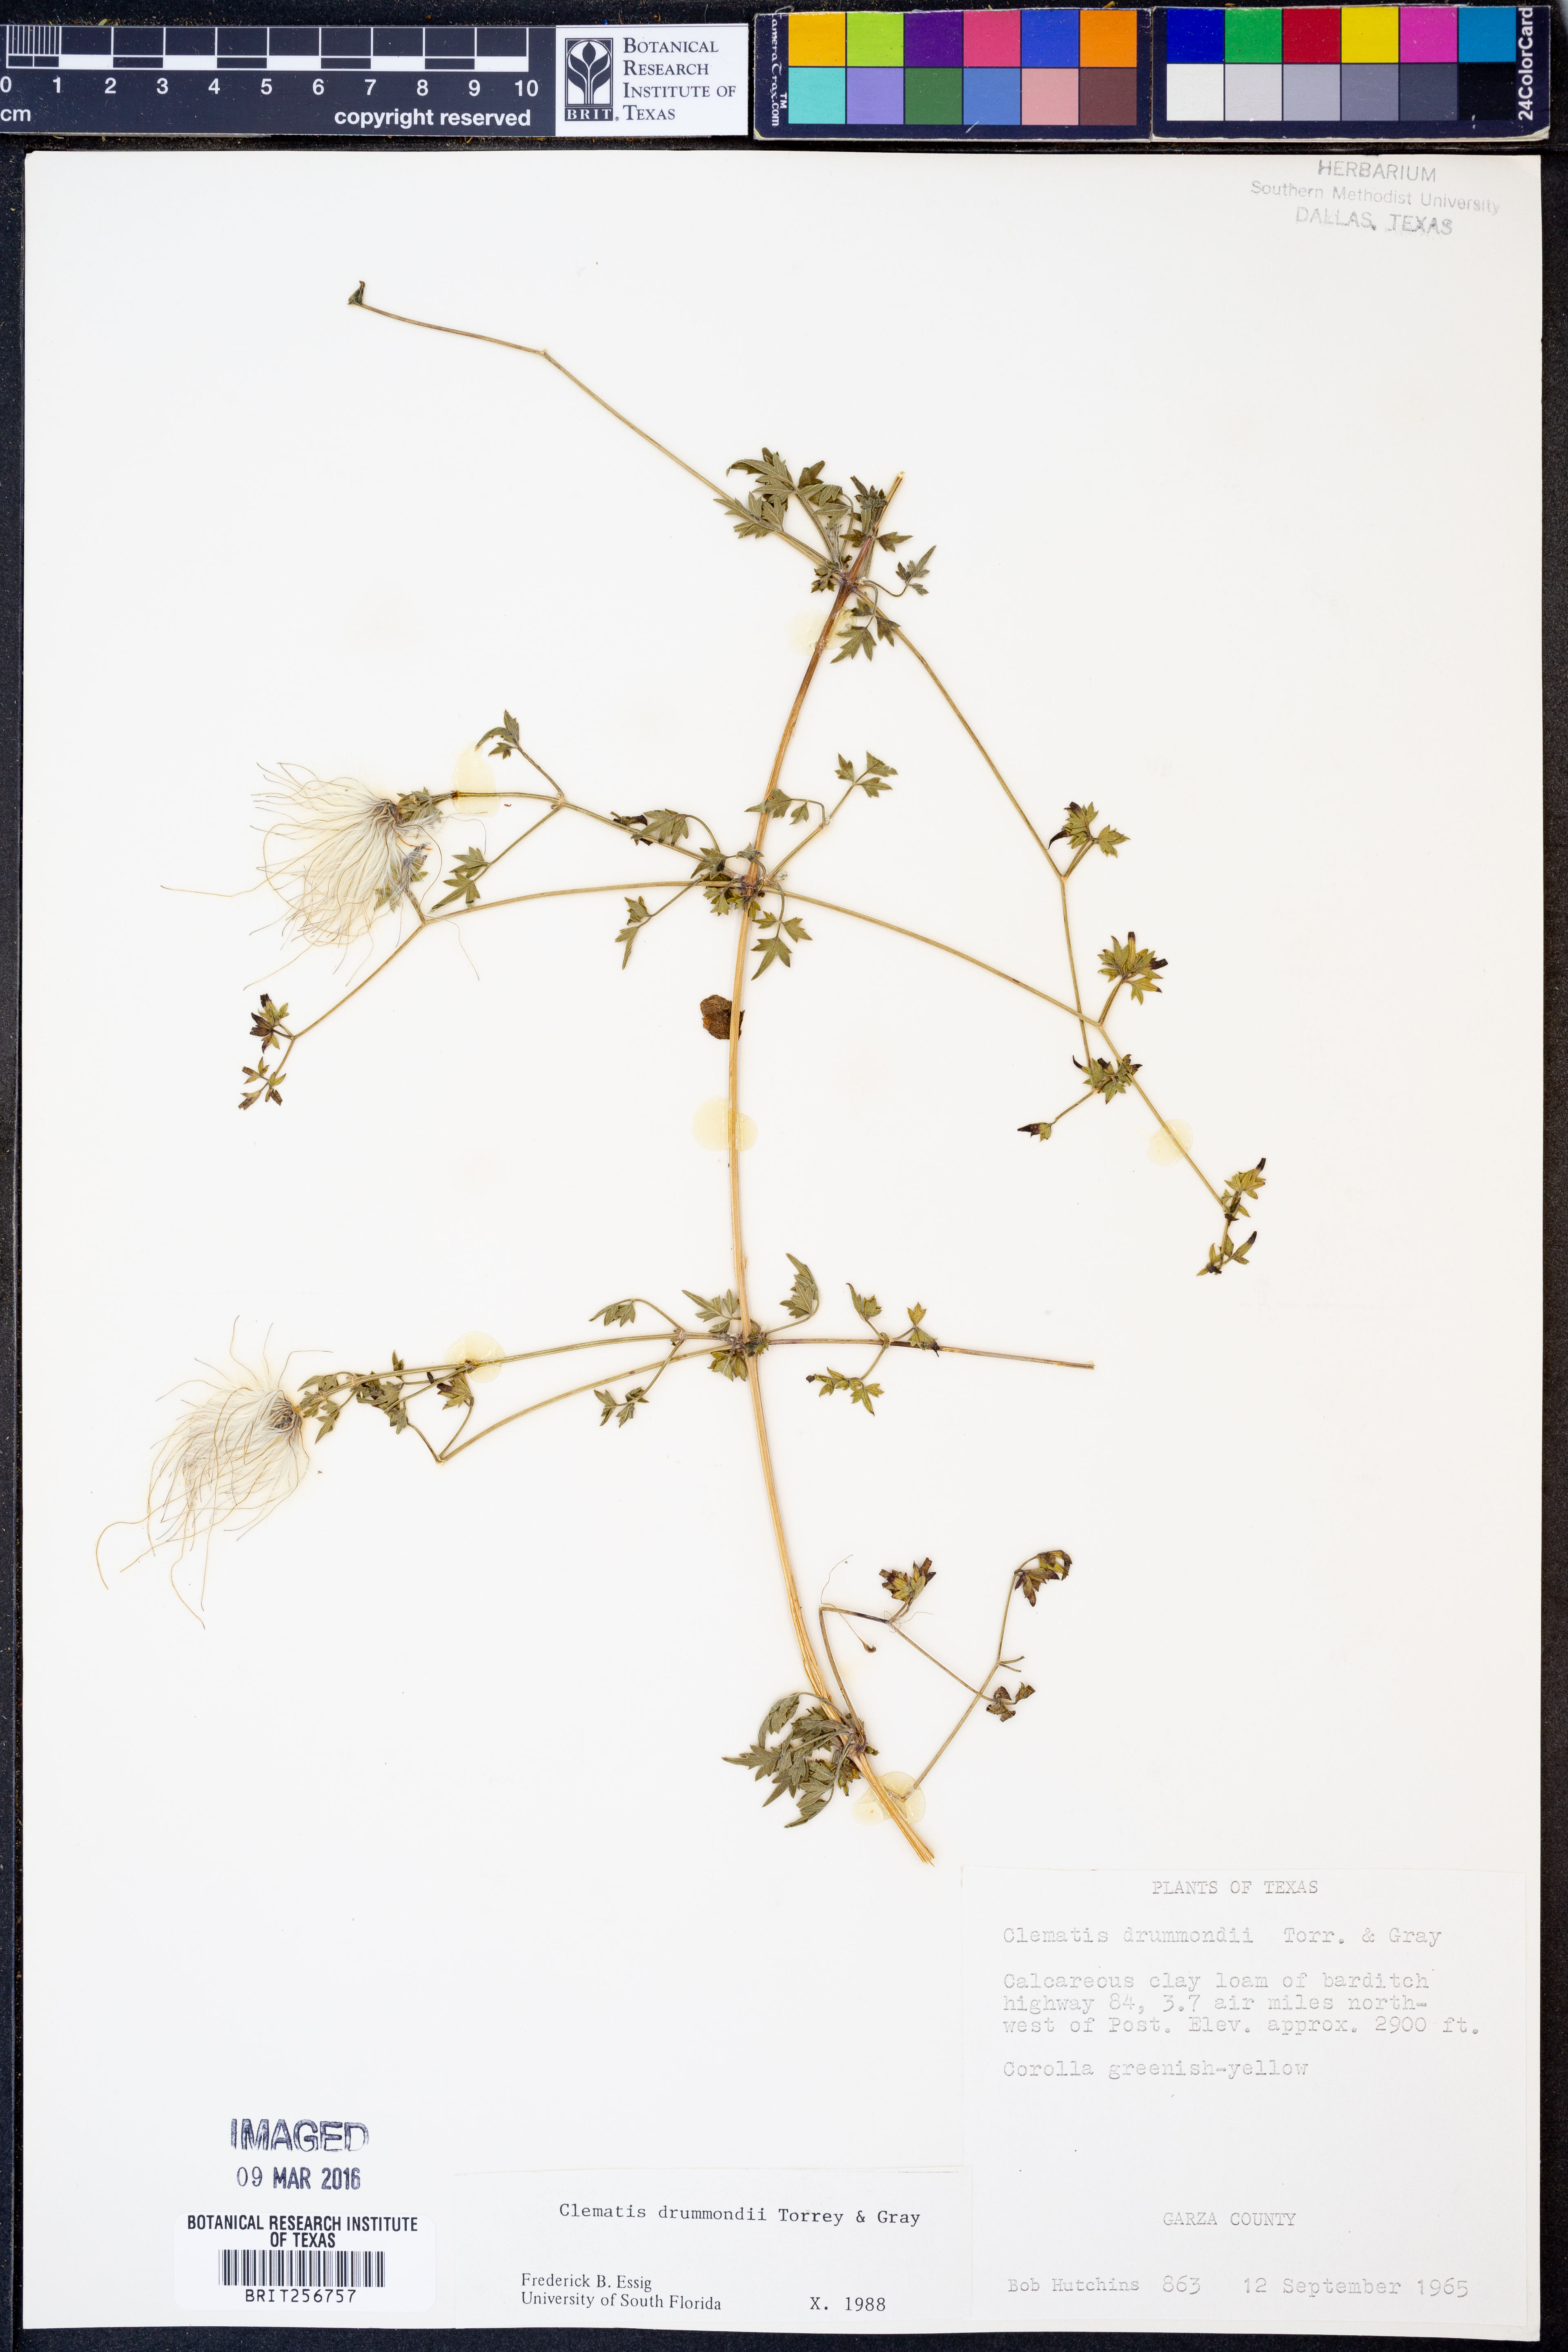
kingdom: Plantae
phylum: Tracheophyta
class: Magnoliopsida
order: Ranunculales
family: Ranunculaceae
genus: Clematis
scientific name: Clematis drummondii
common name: Texas virgin's bower
